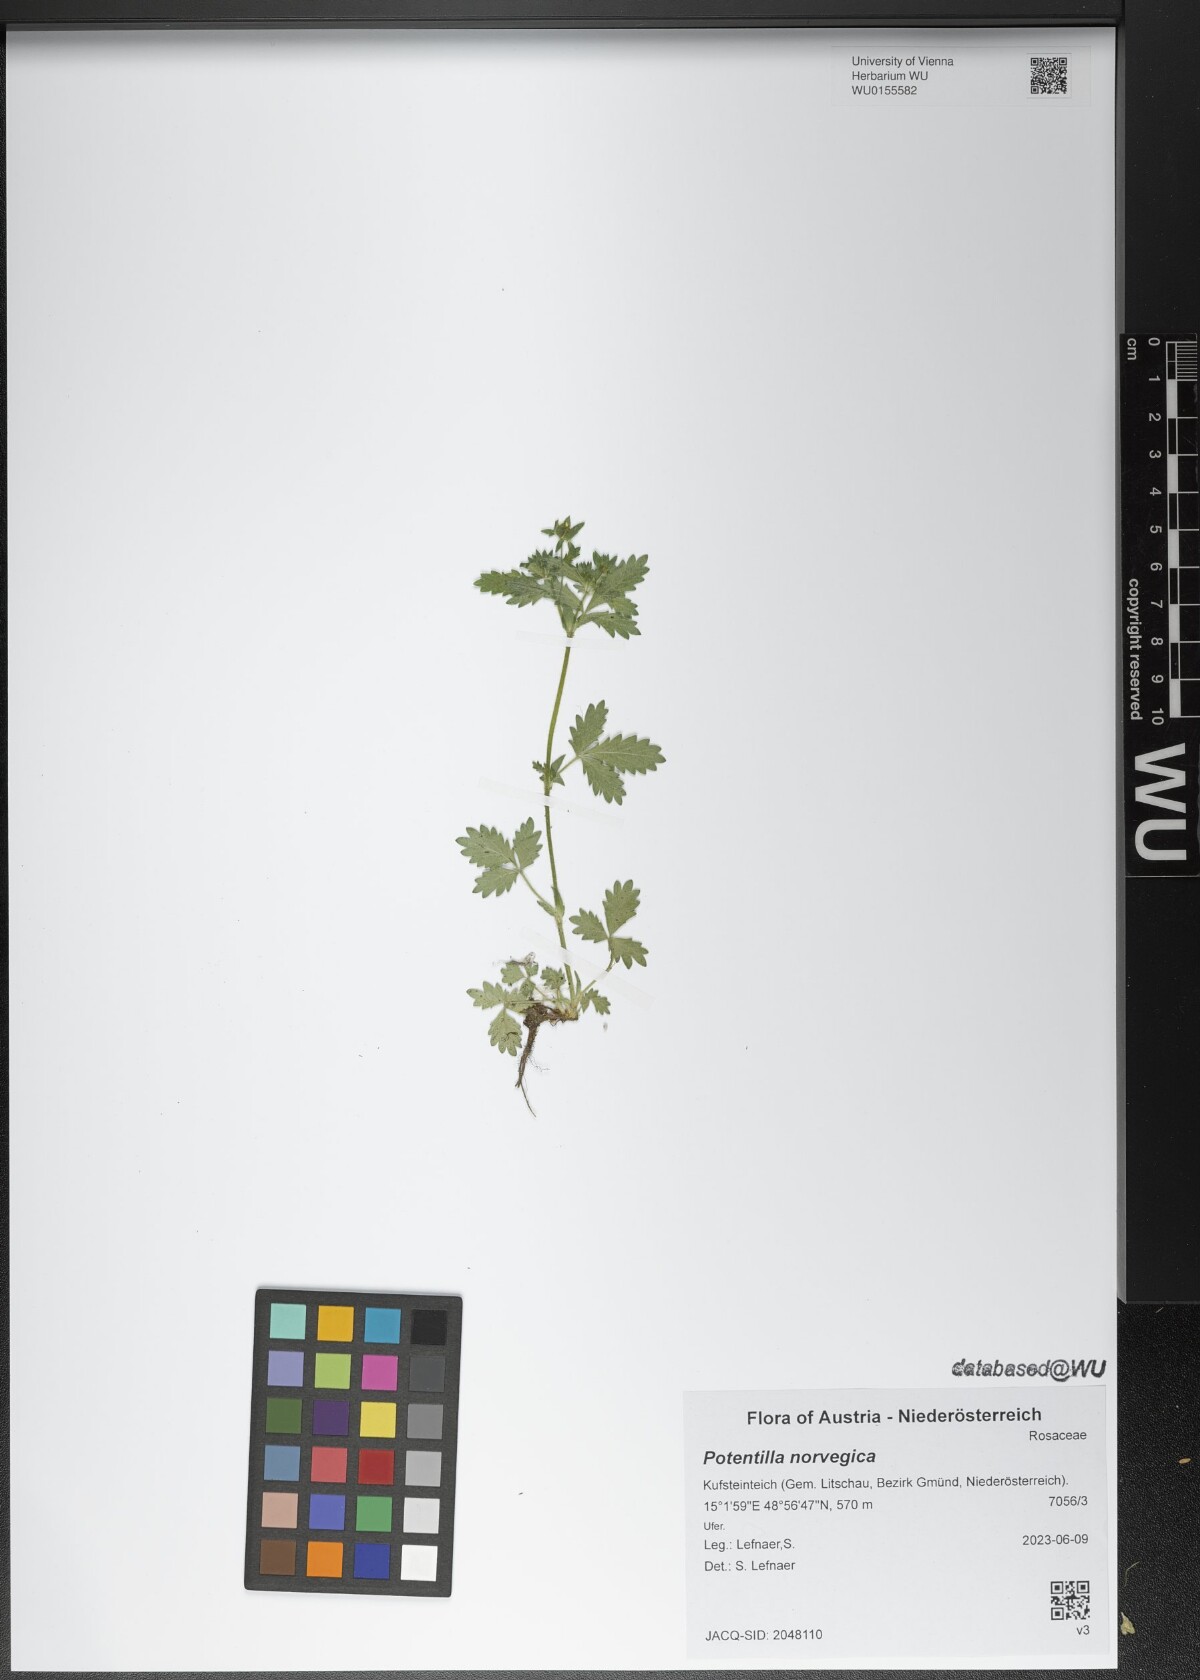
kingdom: Plantae
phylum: Tracheophyta
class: Magnoliopsida
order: Rosales
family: Rosaceae
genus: Potentilla
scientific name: Potentilla norvegica
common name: Ternate-leaved cinquefoil
